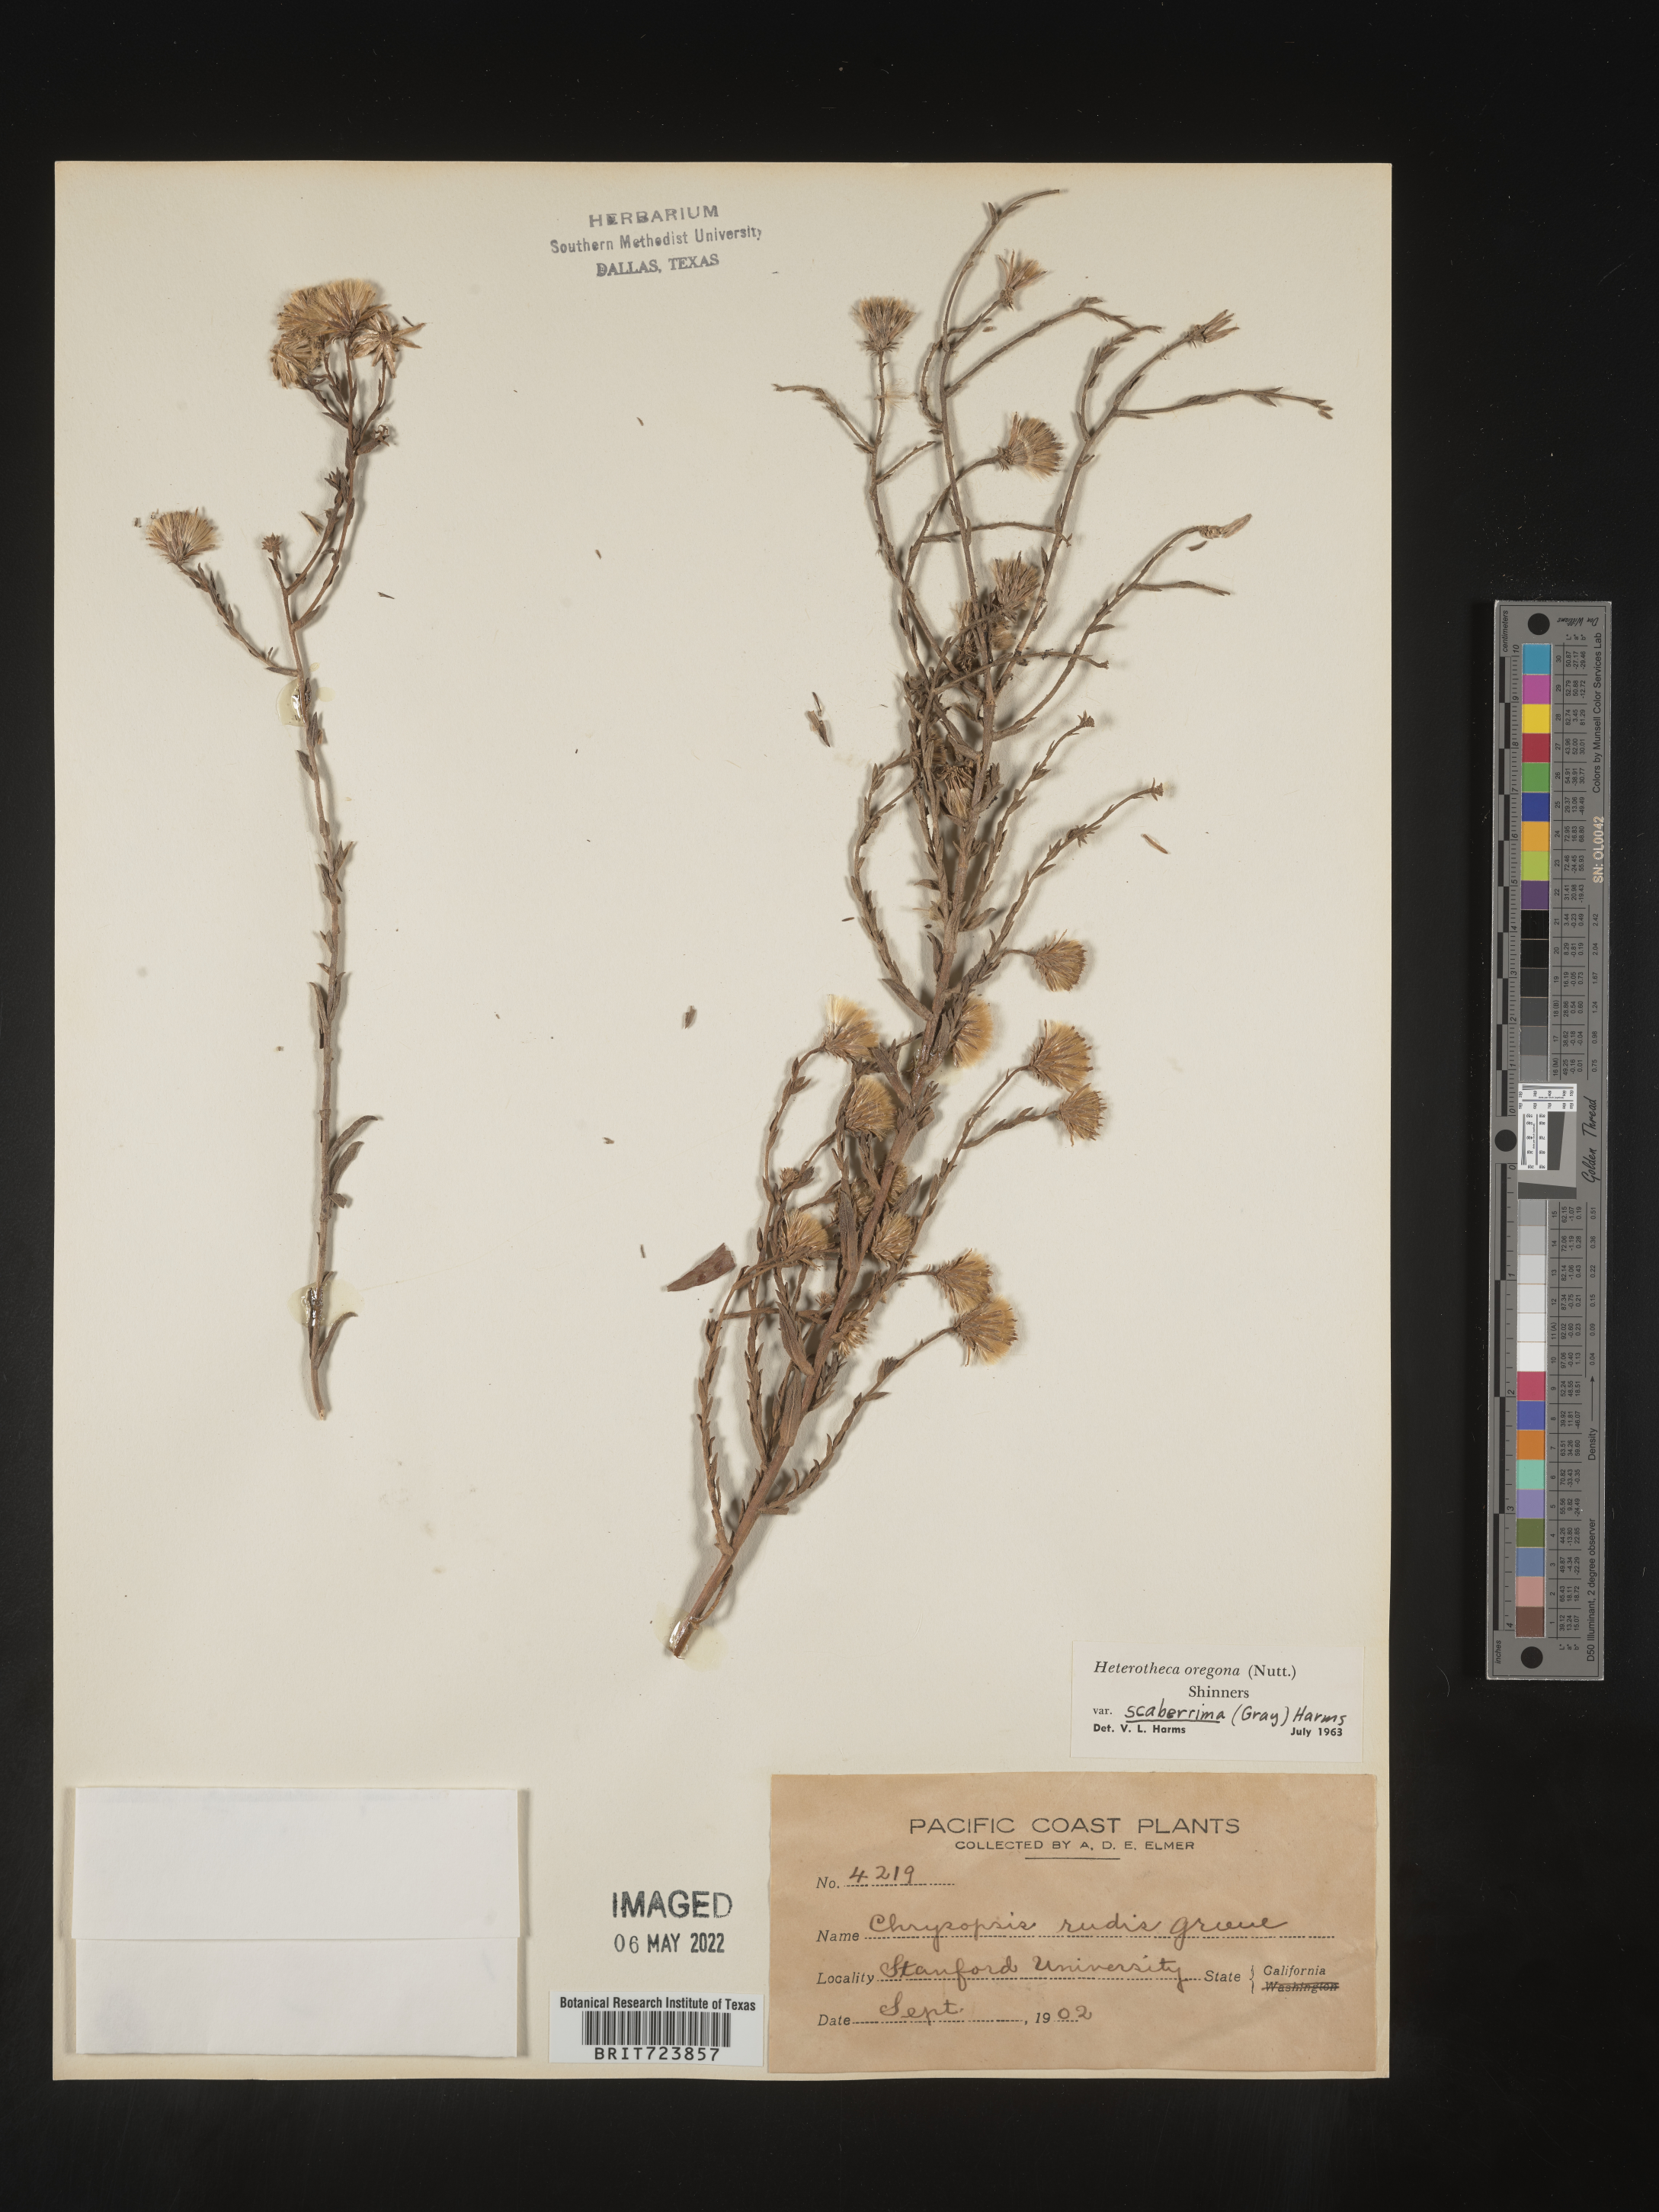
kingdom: Plantae
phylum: Tracheophyta
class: Magnoliopsida
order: Asterales
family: Asteraceae
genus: Heterotheca
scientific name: Heterotheca scaberrima
